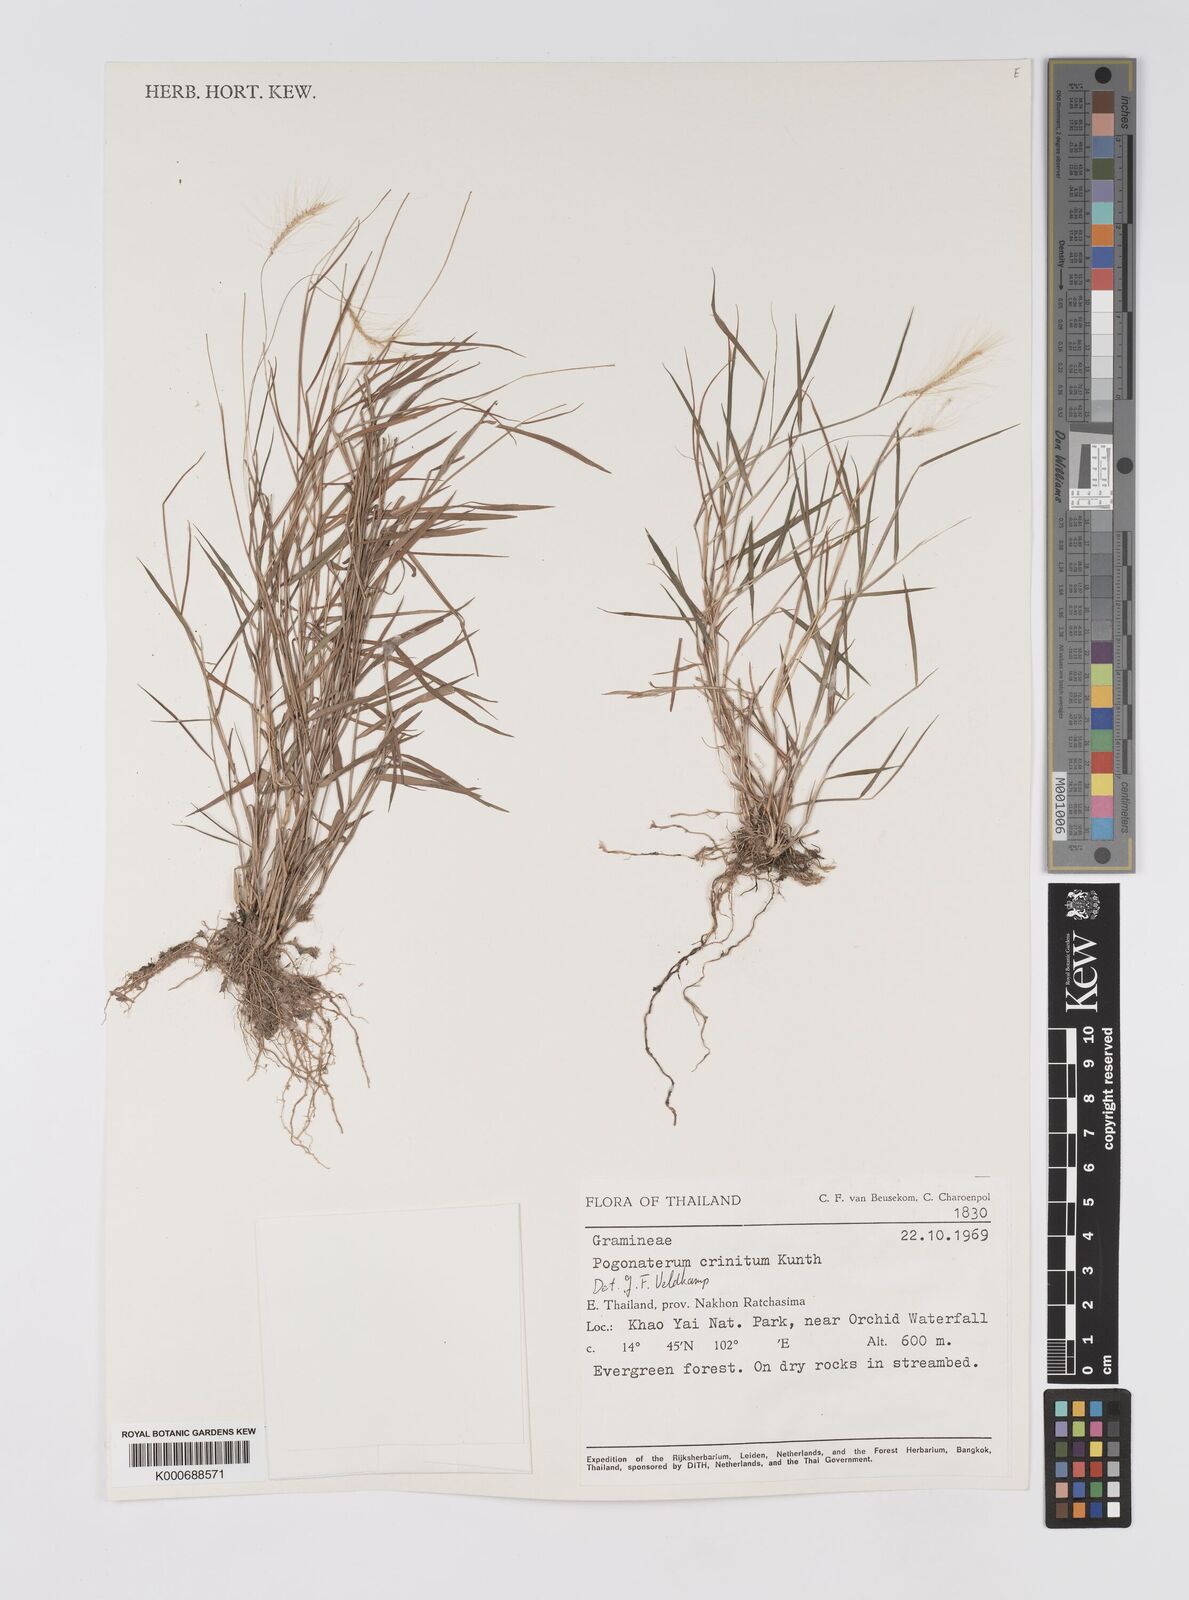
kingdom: Plantae
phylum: Tracheophyta
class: Liliopsida
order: Poales
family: Poaceae
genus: Pogonatherum
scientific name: Pogonatherum crinitum
